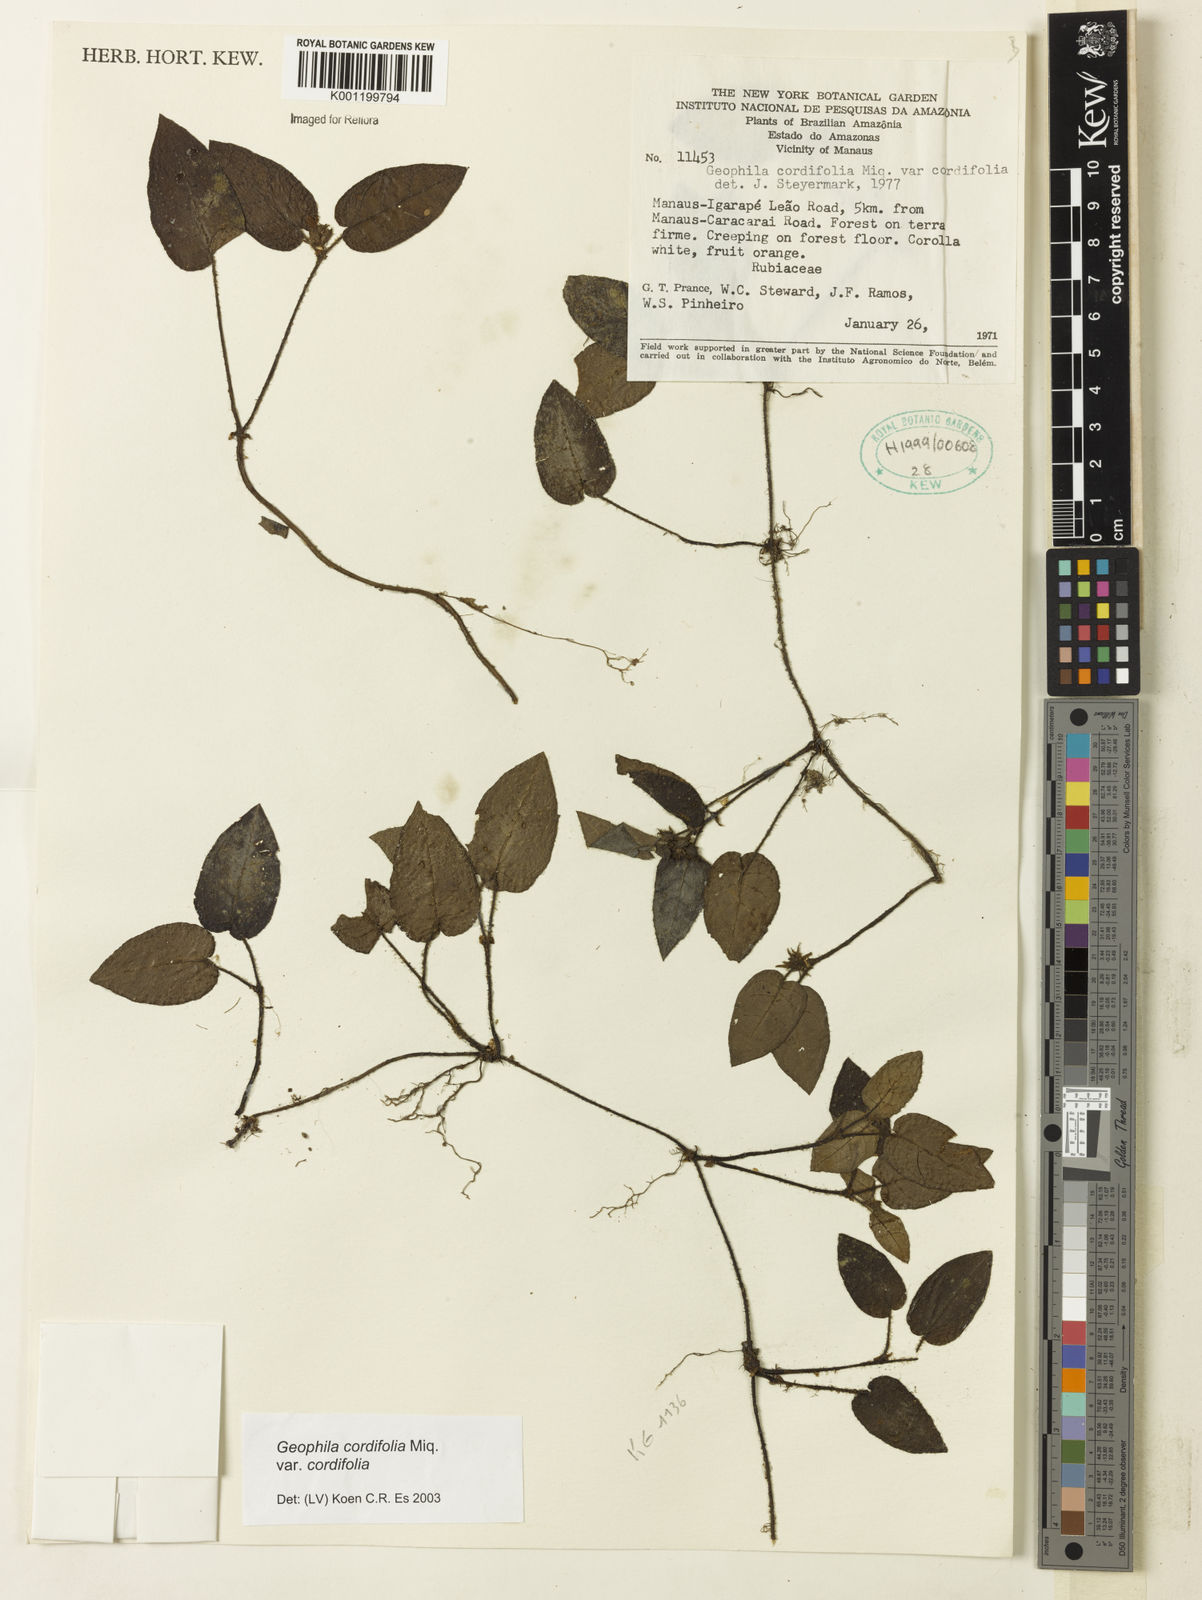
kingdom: Plantae
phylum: Tracheophyta
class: Magnoliopsida
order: Gentianales
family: Rubiaceae
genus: Geophila
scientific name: Geophila cordifolia
